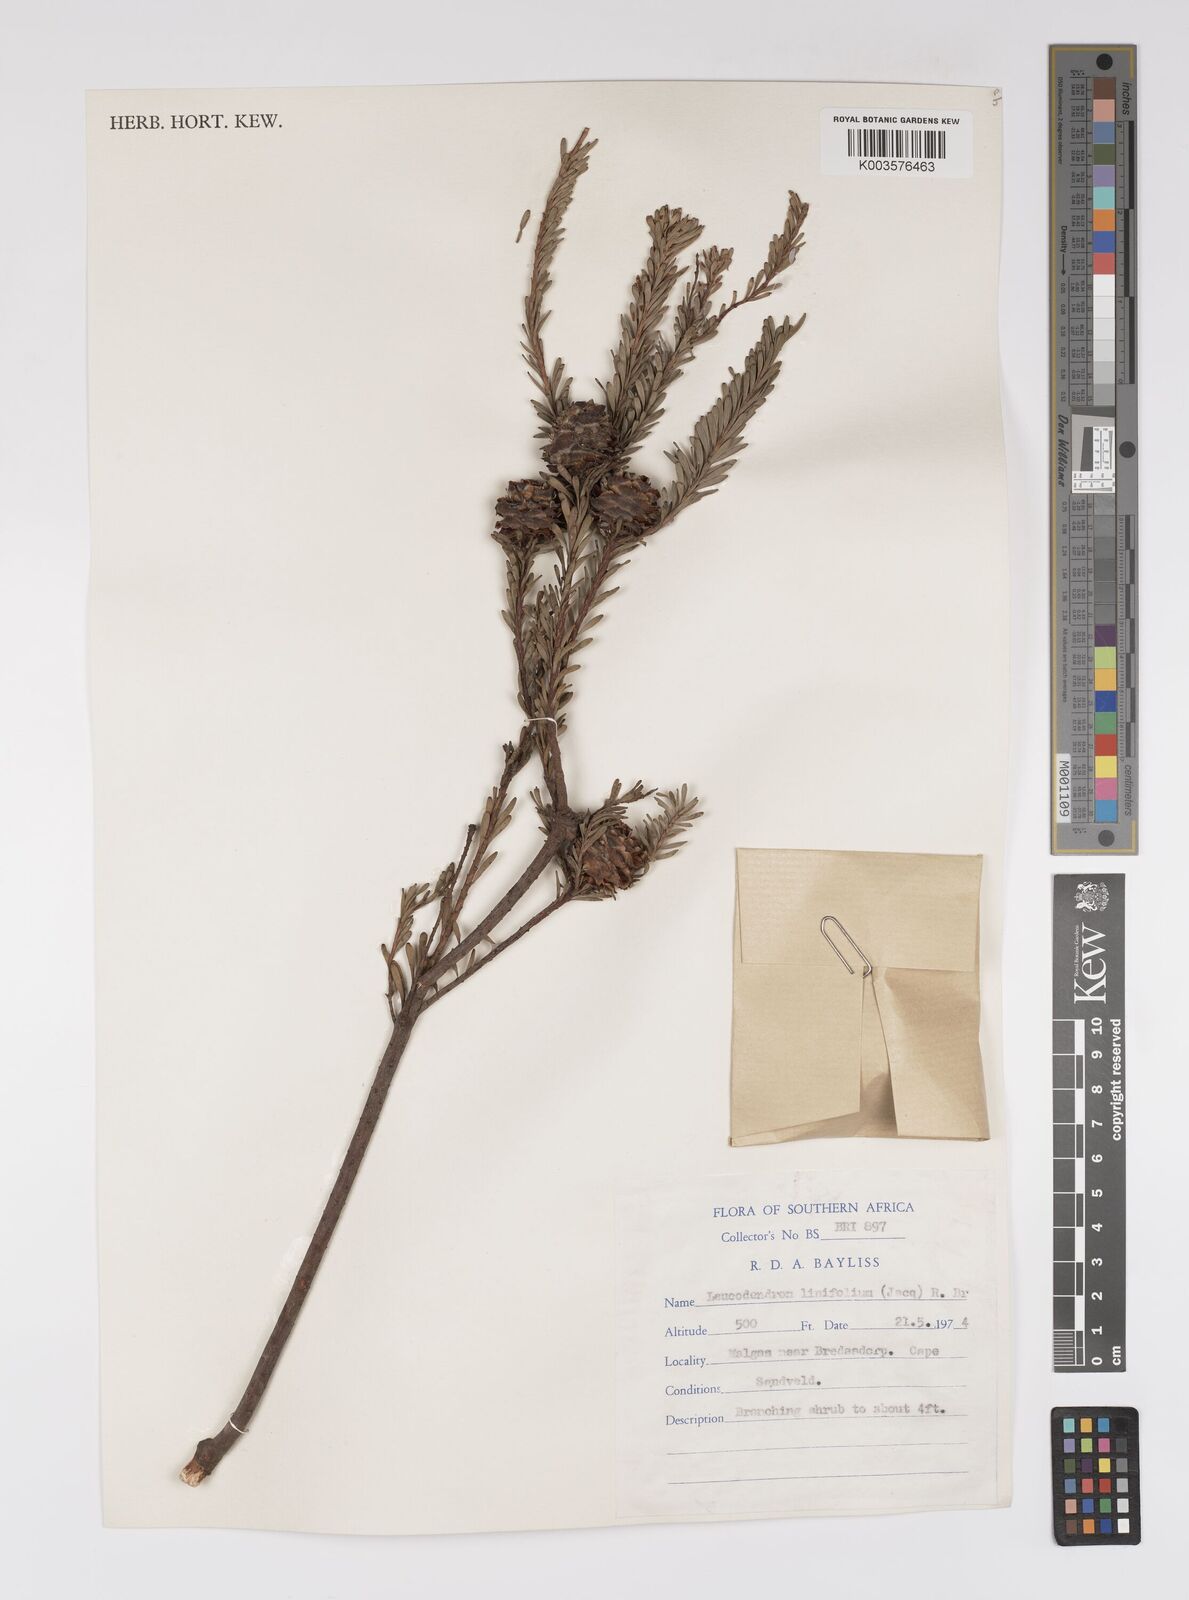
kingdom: Plantae
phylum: Tracheophyta
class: Magnoliopsida
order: Proteales
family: Proteaceae
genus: Leucadendron
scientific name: Leucadendron linifolium
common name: Line-leaf conebush
